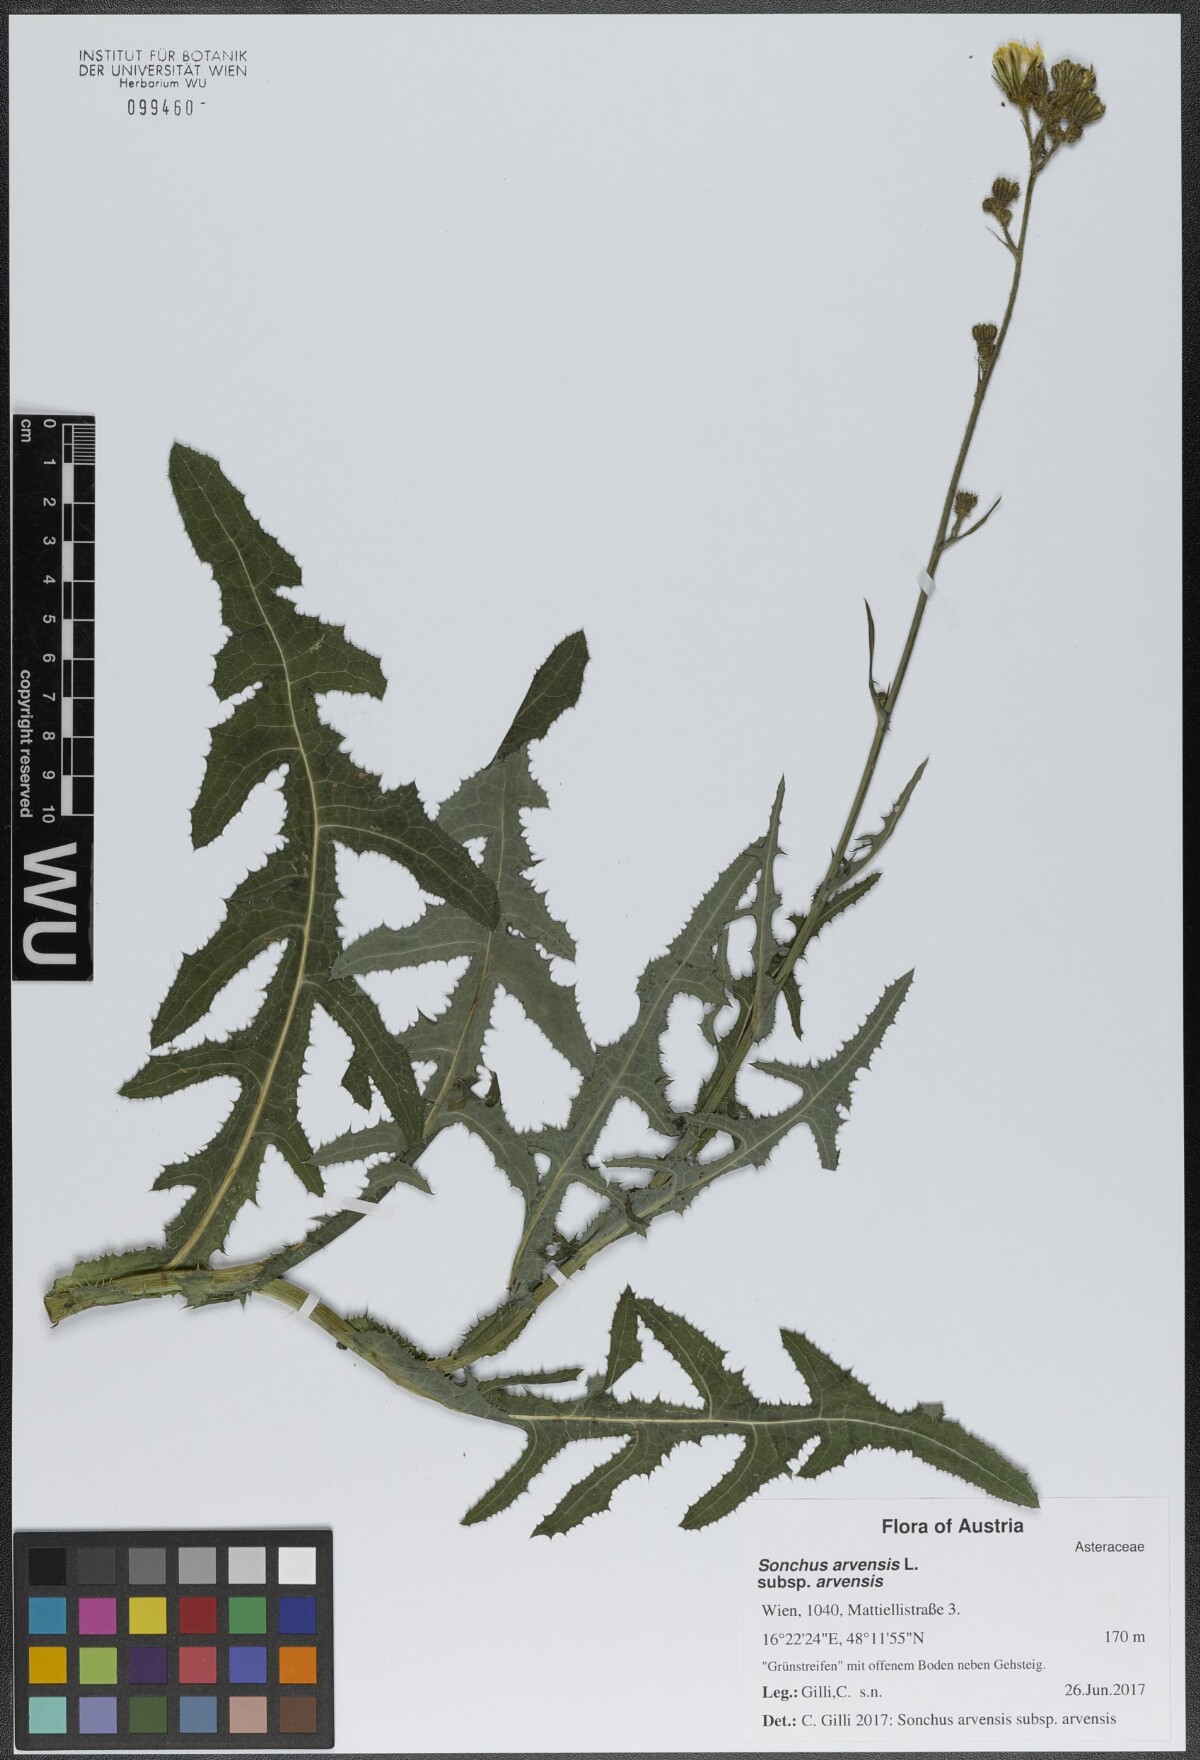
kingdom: Plantae
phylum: Tracheophyta
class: Magnoliopsida
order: Asterales
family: Asteraceae
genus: Sonchus
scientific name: Sonchus arvensis
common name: Perennial sow-thistle
